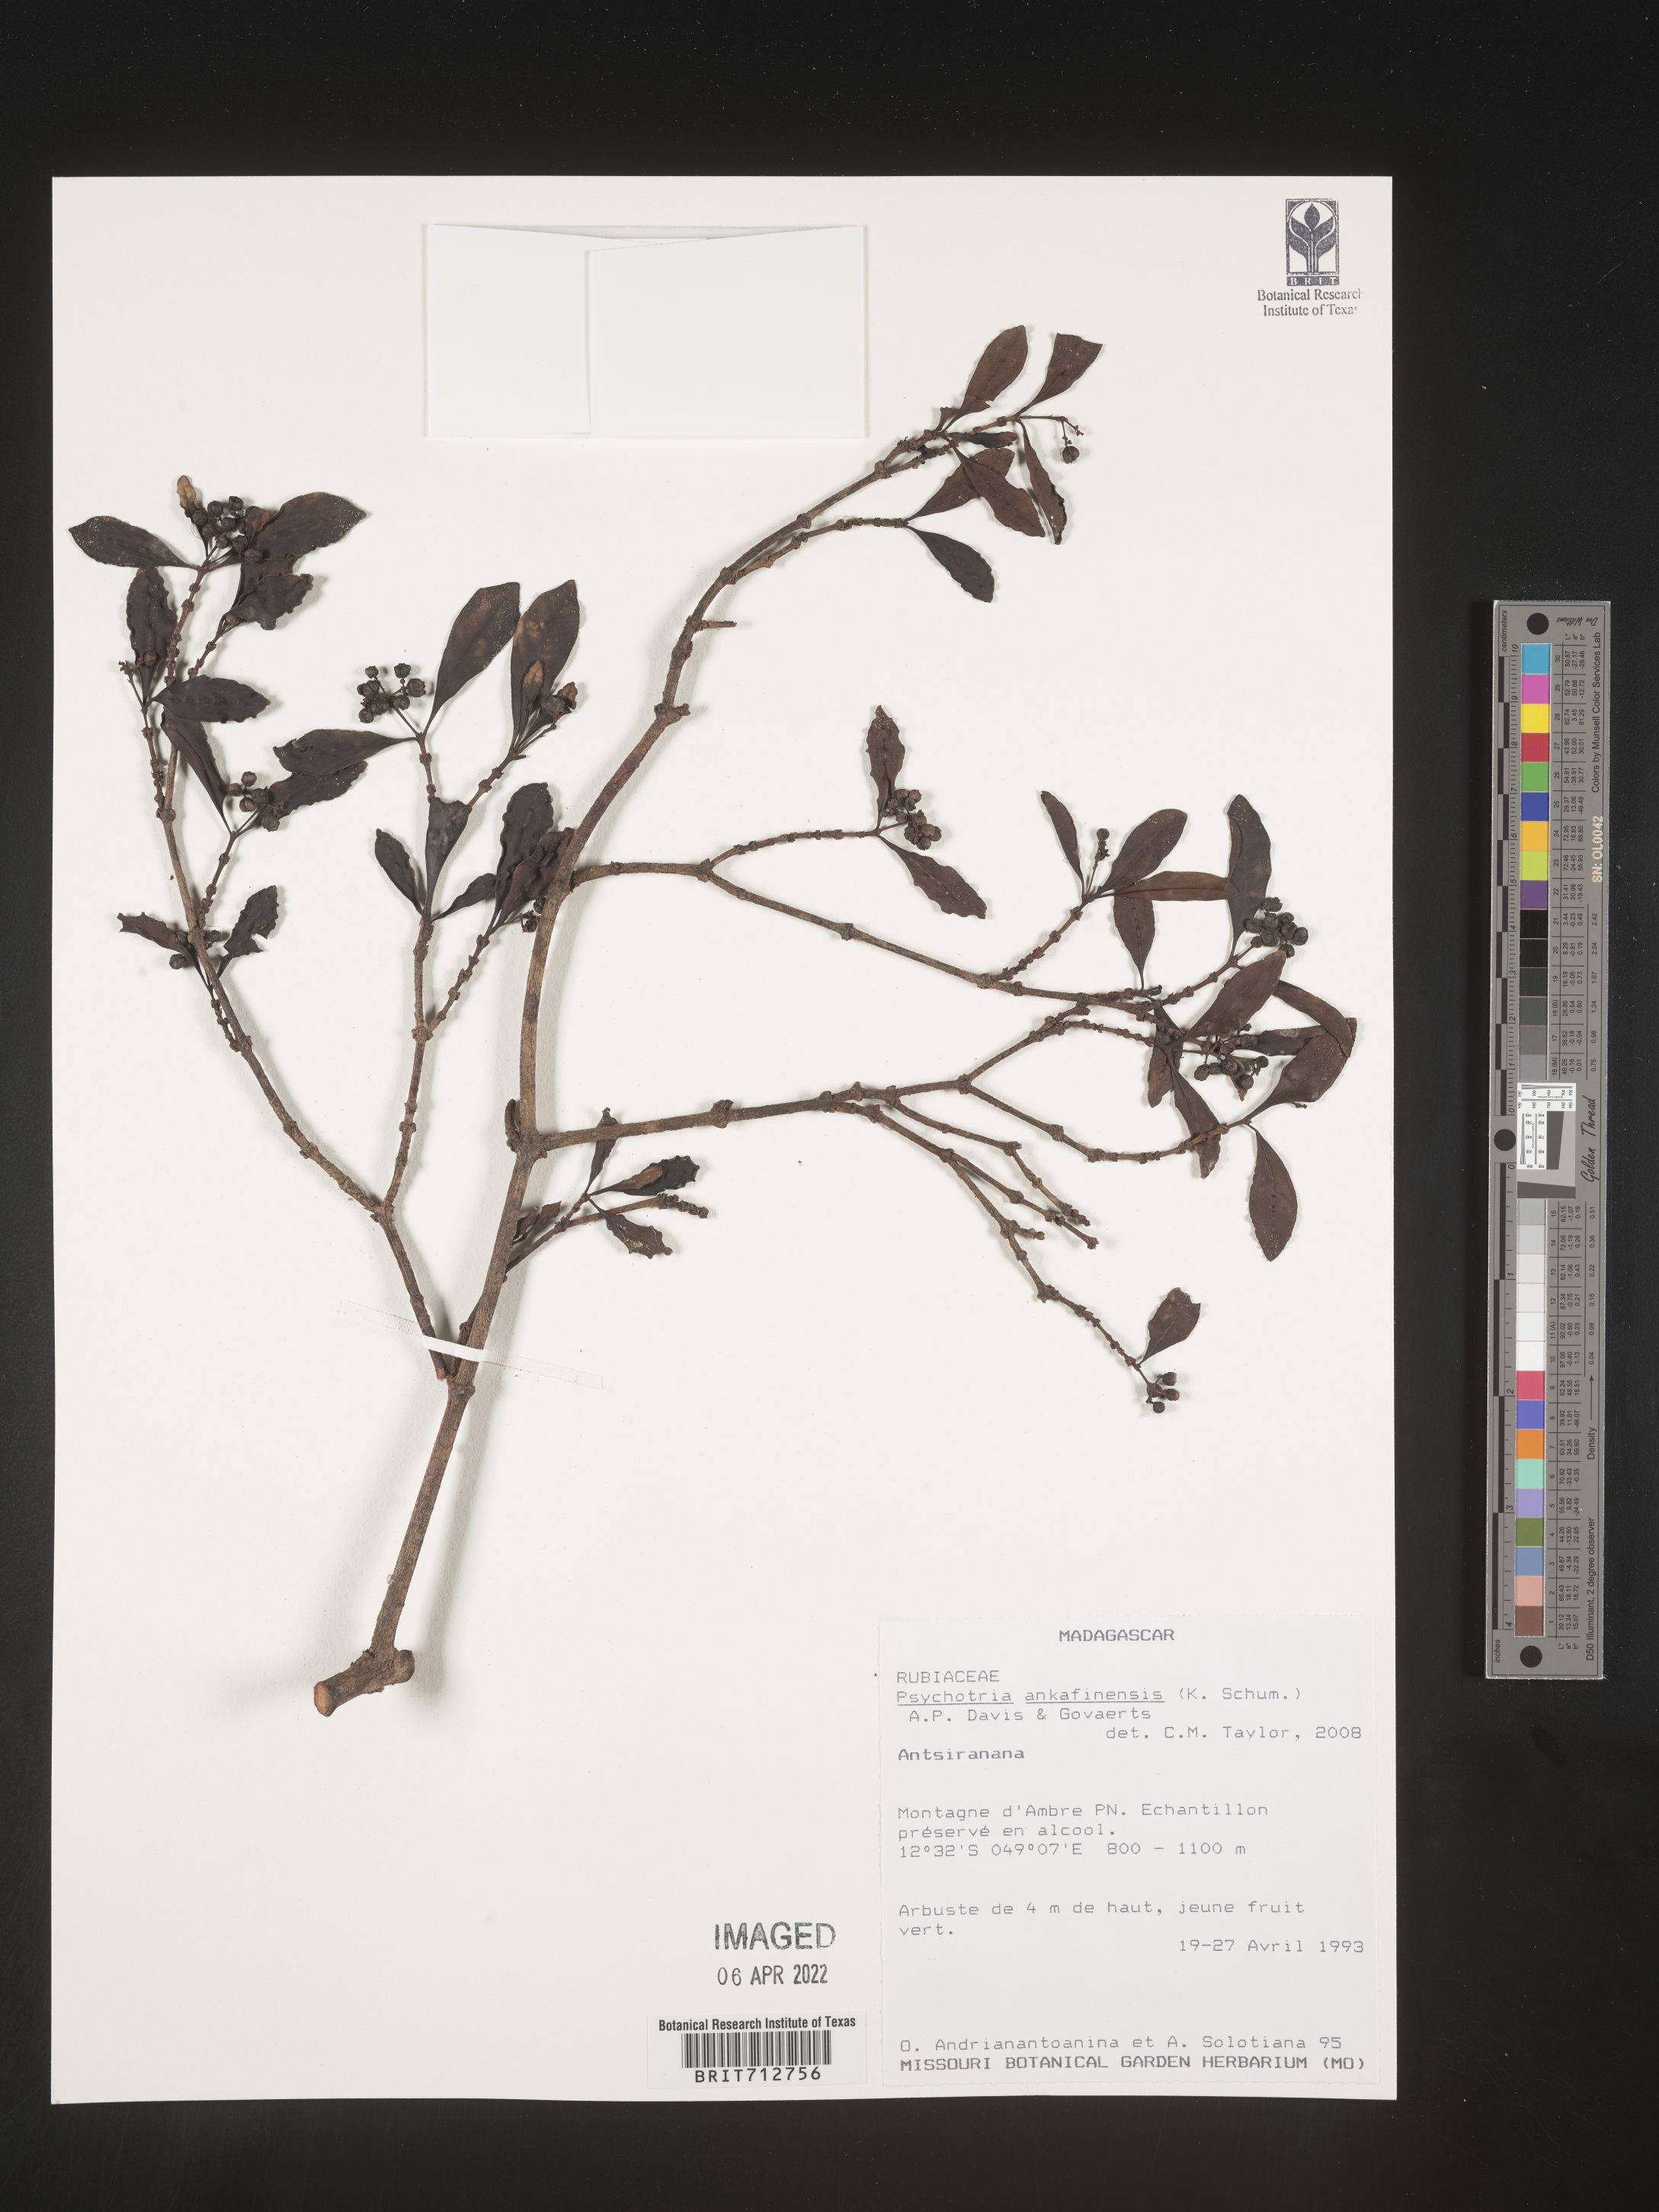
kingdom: Plantae
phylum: Tracheophyta
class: Magnoliopsida
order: Gentianales
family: Rubiaceae
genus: Psychotria
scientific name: Psychotria
